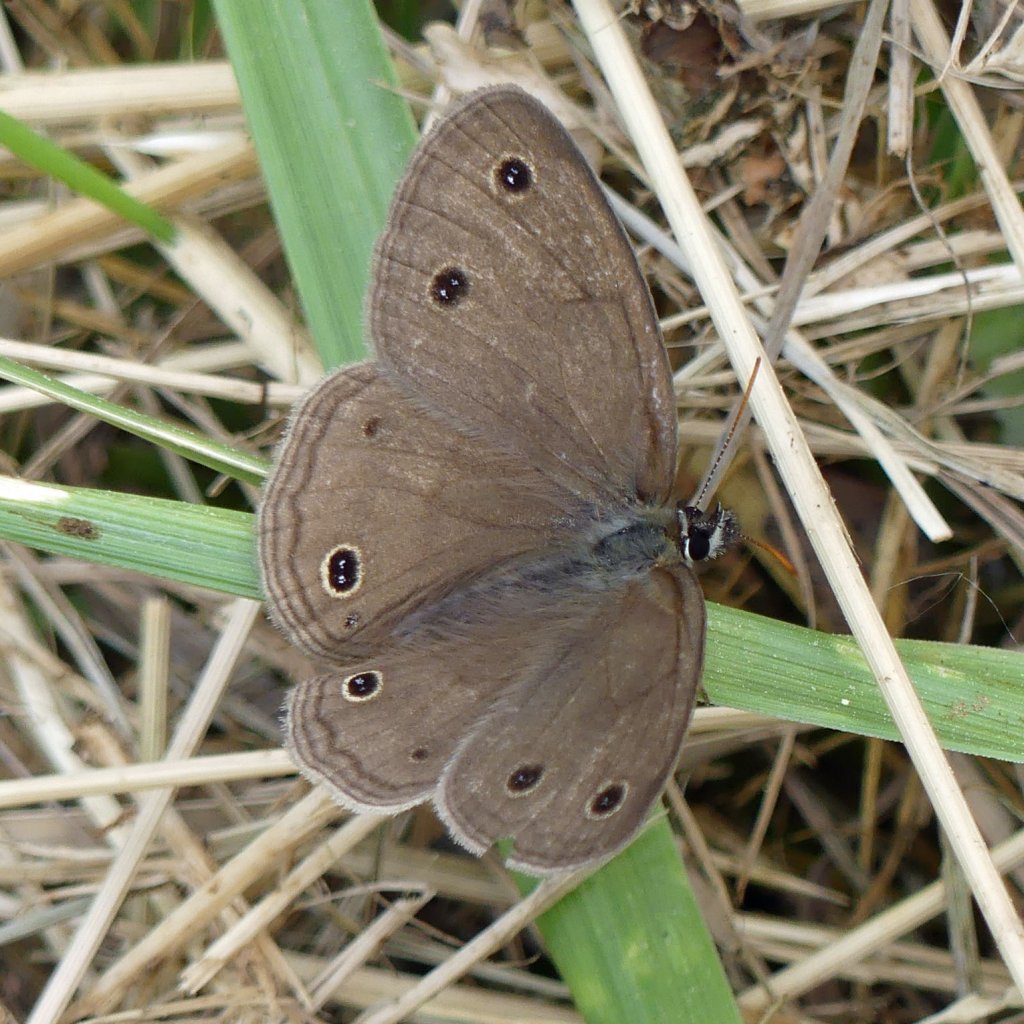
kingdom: Animalia
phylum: Arthropoda
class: Insecta
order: Lepidoptera
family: Nymphalidae
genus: Euptychia
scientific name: Euptychia cymela
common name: Little Wood Satyr
